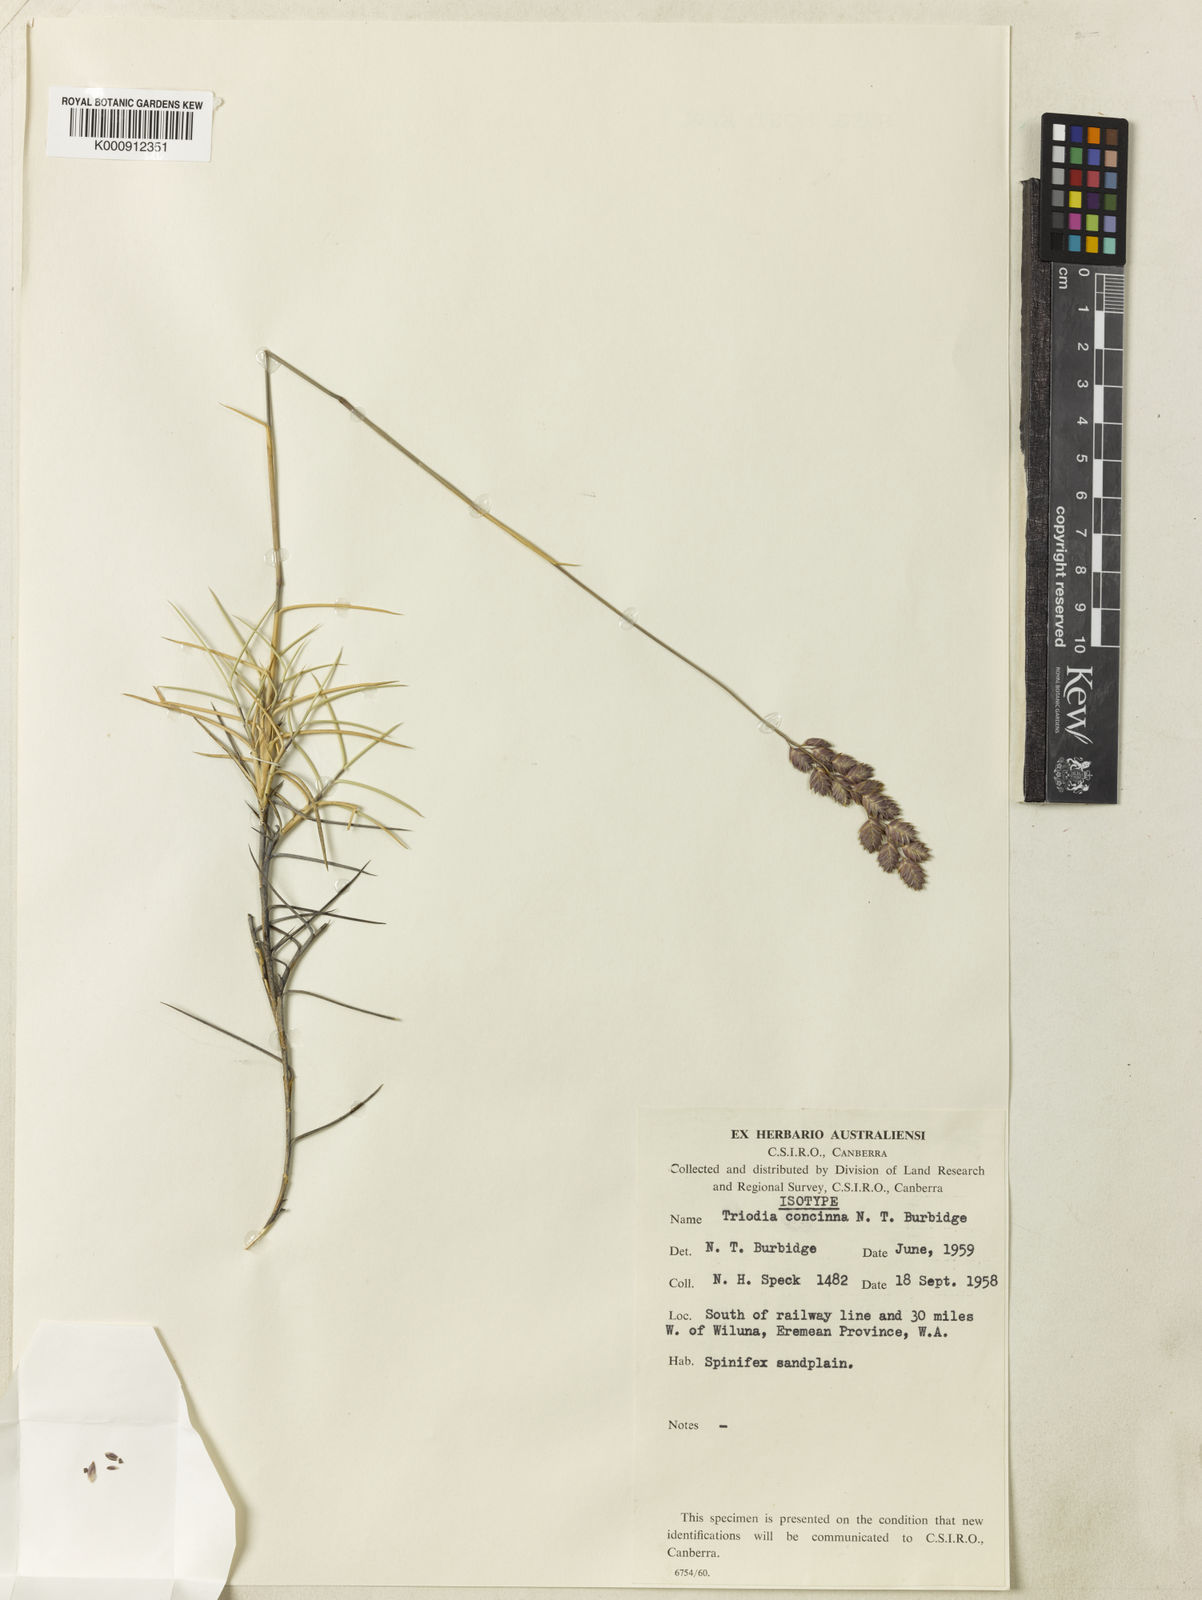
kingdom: Plantae
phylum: Tracheophyta
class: Liliopsida
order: Poales
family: Poaceae
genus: Triodia
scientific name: Triodia concinna
